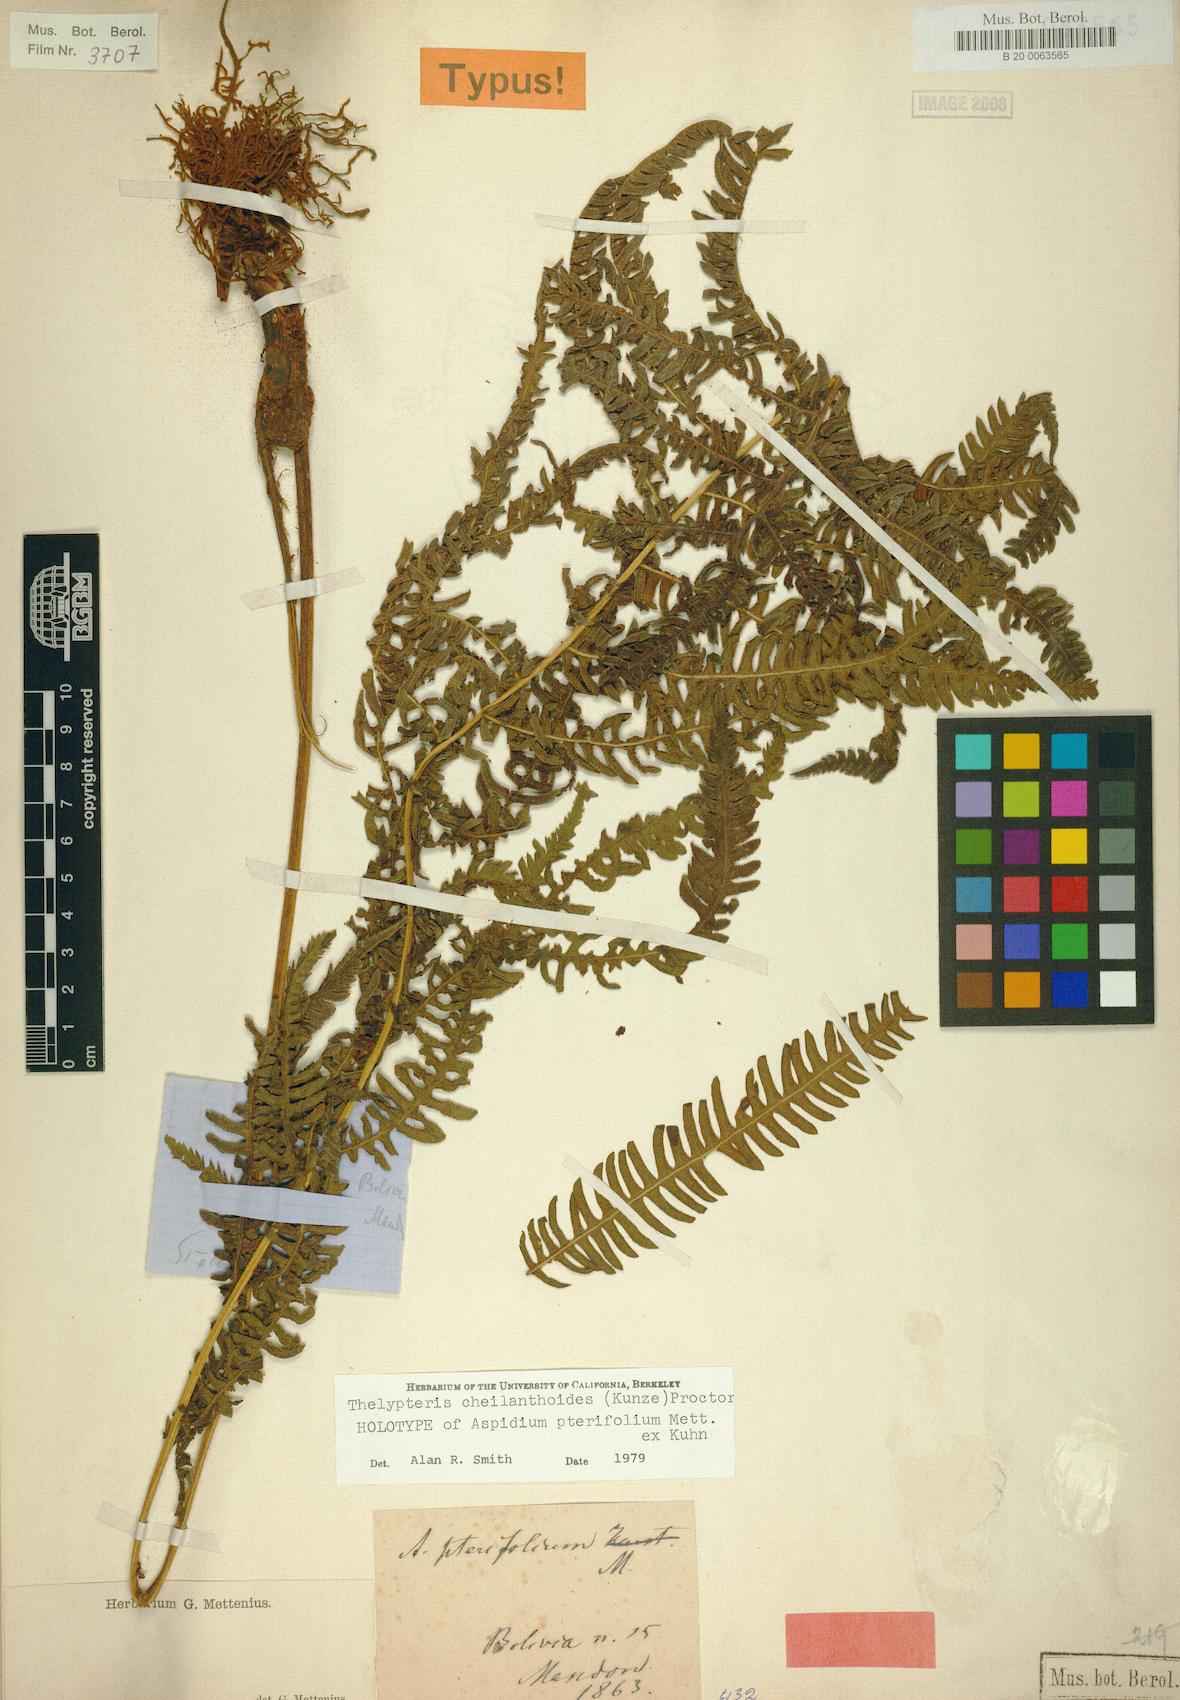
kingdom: Plantae
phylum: Tracheophyta
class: Polypodiopsida
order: Polypodiales
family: Thelypteridaceae
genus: Amauropelta
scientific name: Amauropelta cheilanthoides
